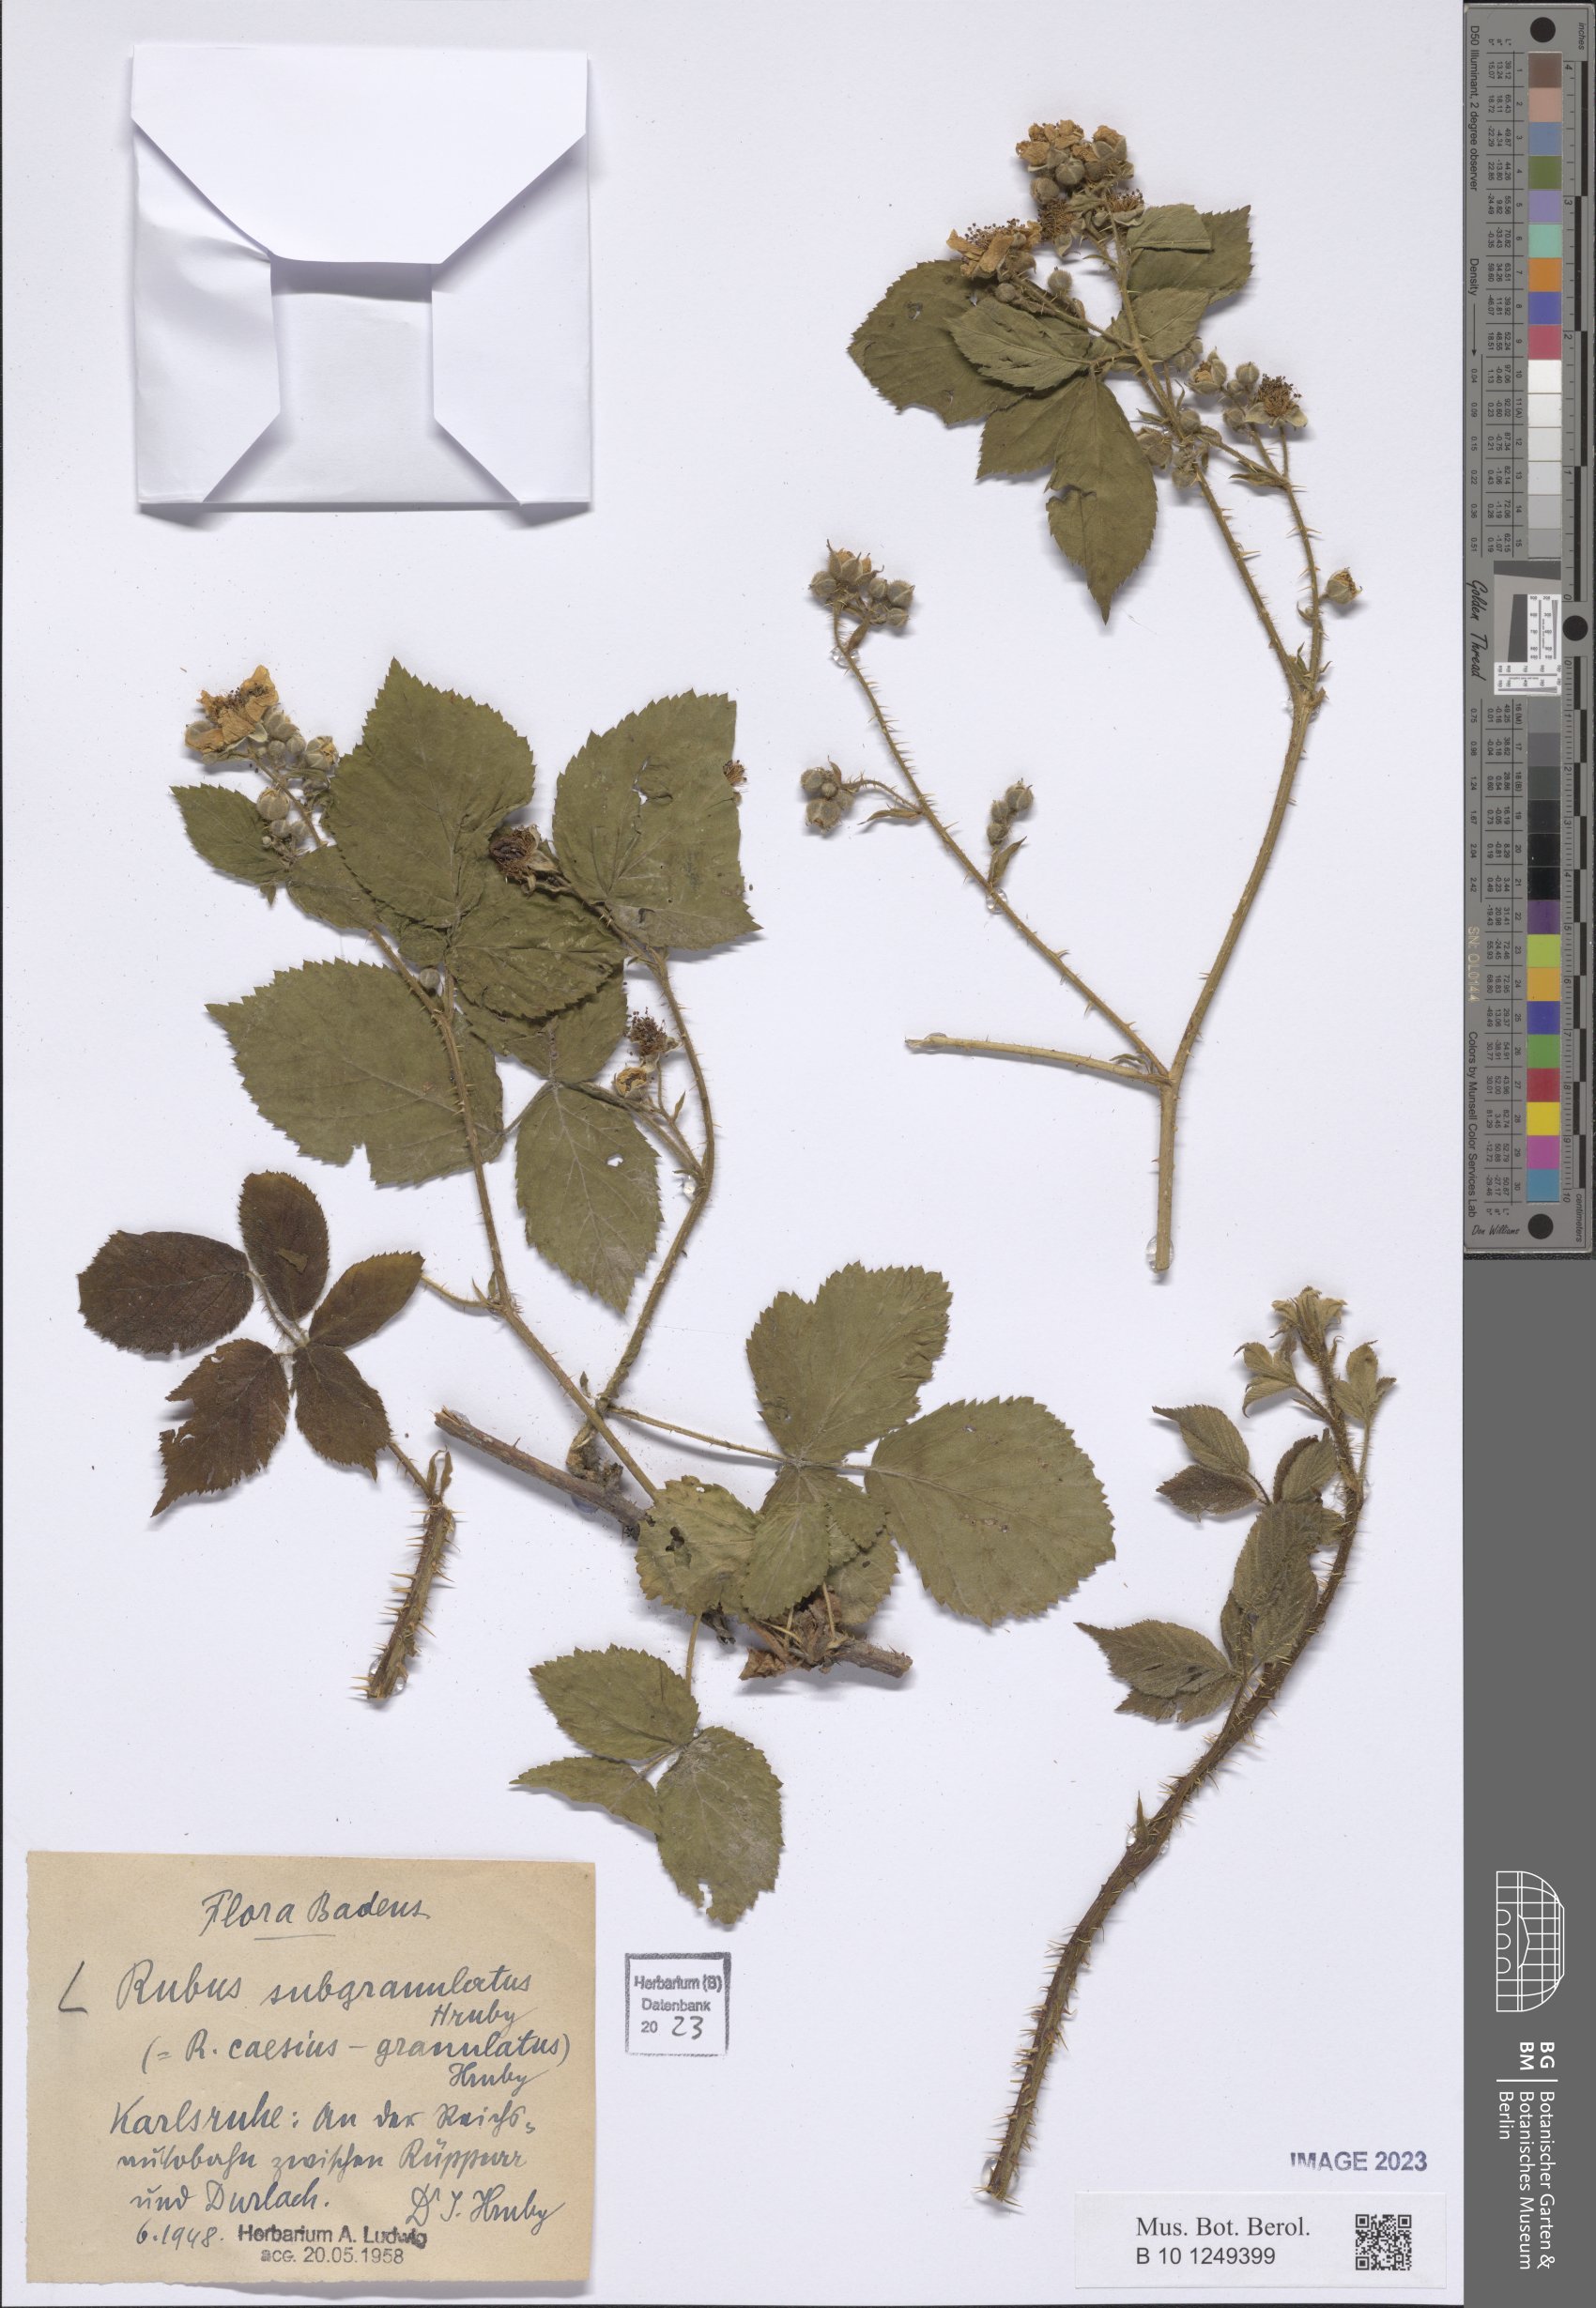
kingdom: Plantae
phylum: Tracheophyta
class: Magnoliopsida
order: Rosales
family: Rosaceae
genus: Rubus
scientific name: Rubus
